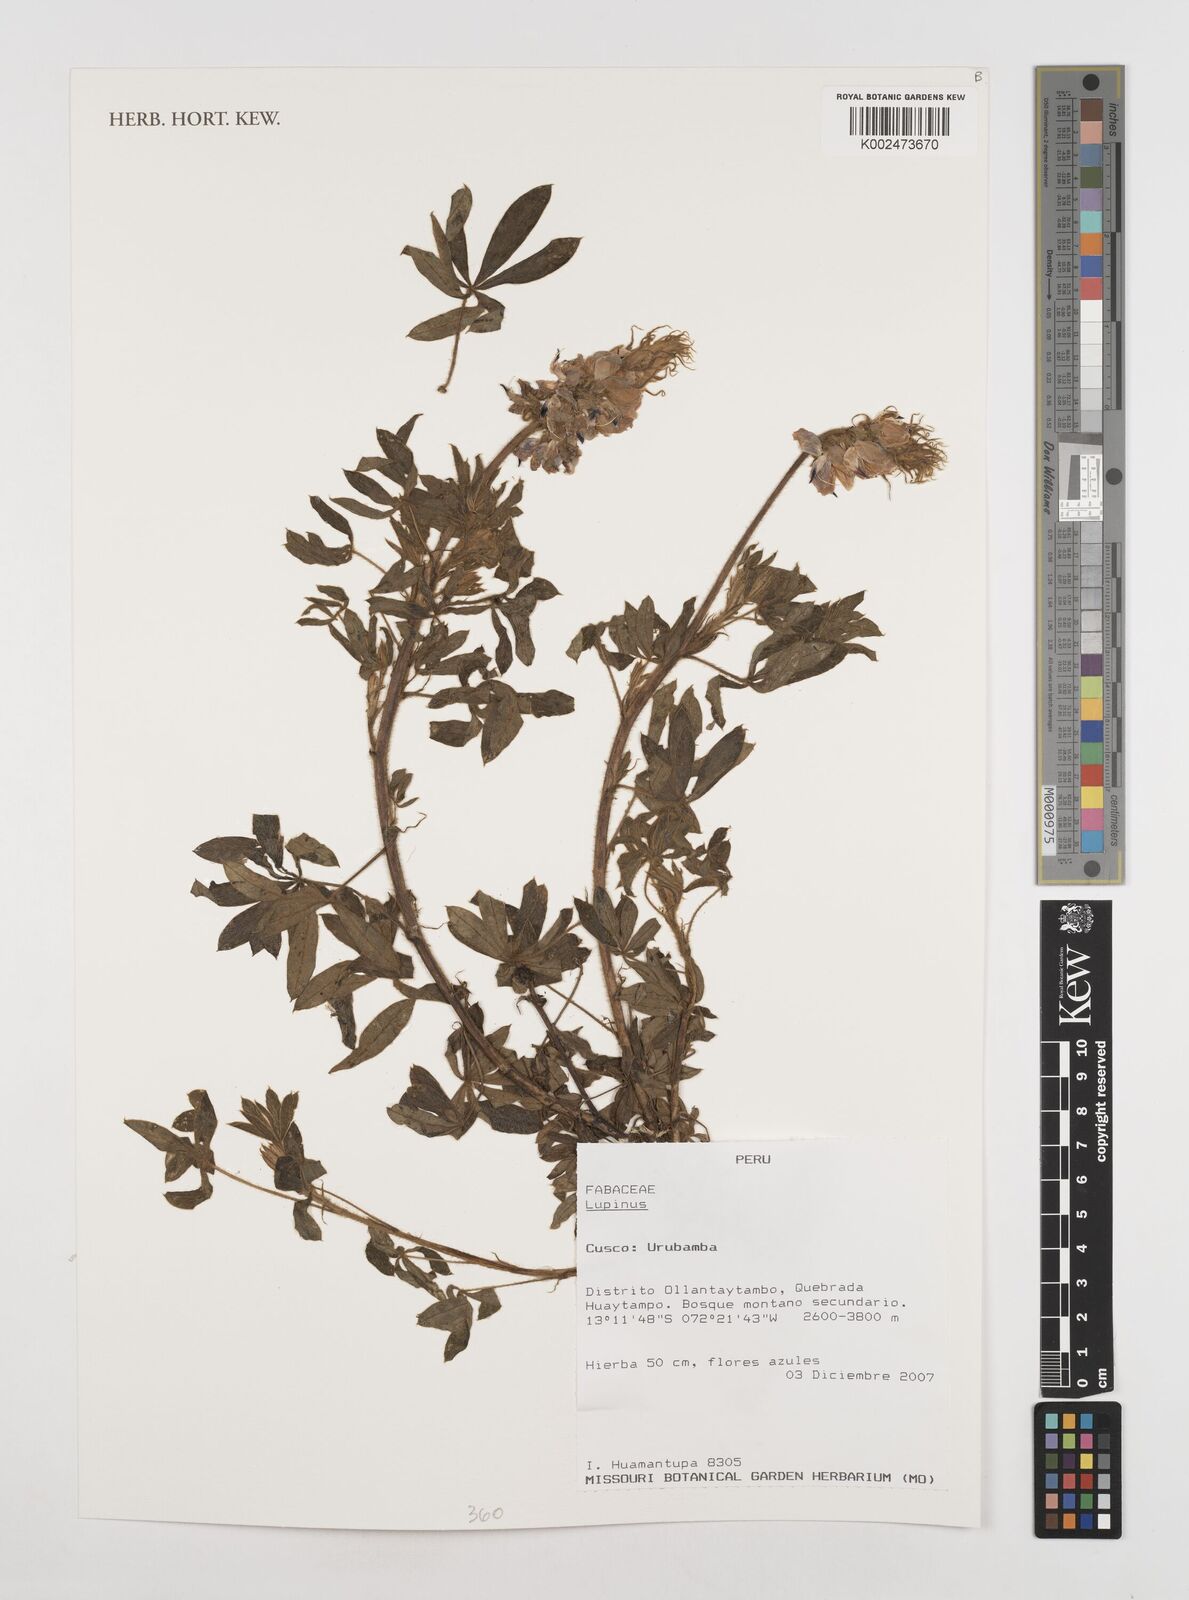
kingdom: Plantae
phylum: Tracheophyta
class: Magnoliopsida
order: Fabales
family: Fabaceae
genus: Lupinus
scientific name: Lupinus
